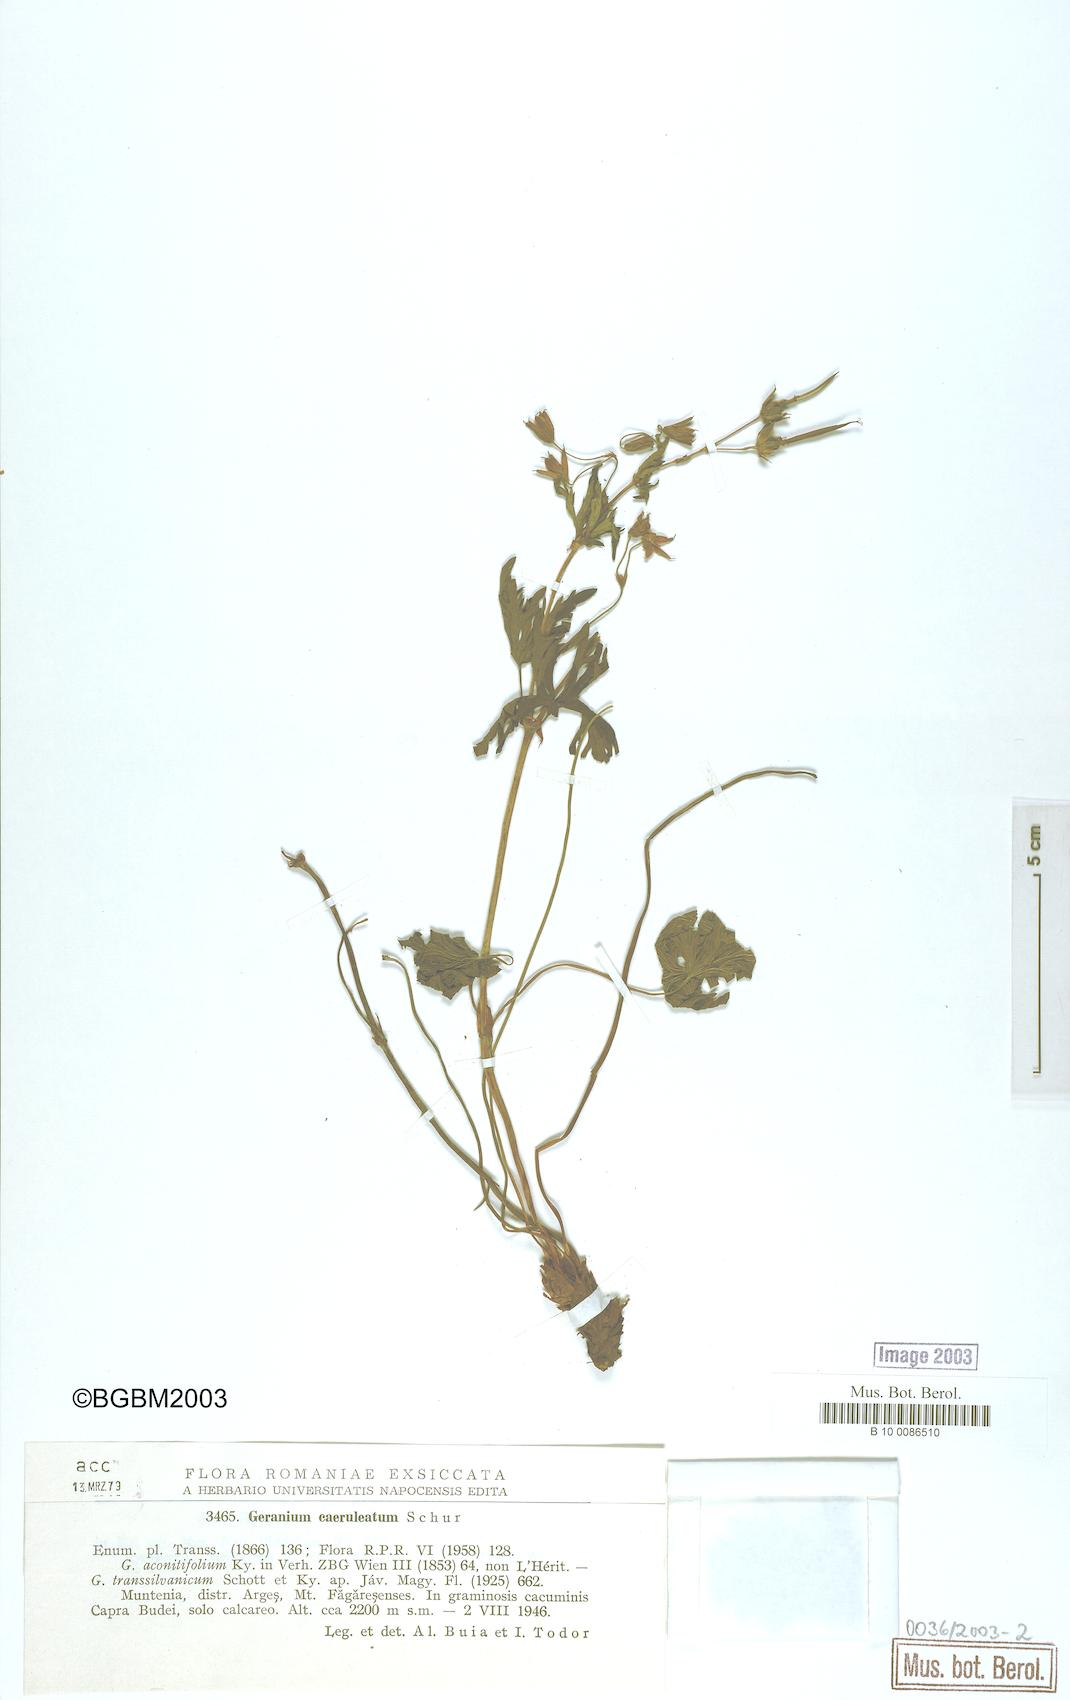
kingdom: Plantae
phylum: Tracheophyta
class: Magnoliopsida
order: Geraniales
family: Geraniaceae
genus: Geranium
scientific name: Geranium caeruleatum
